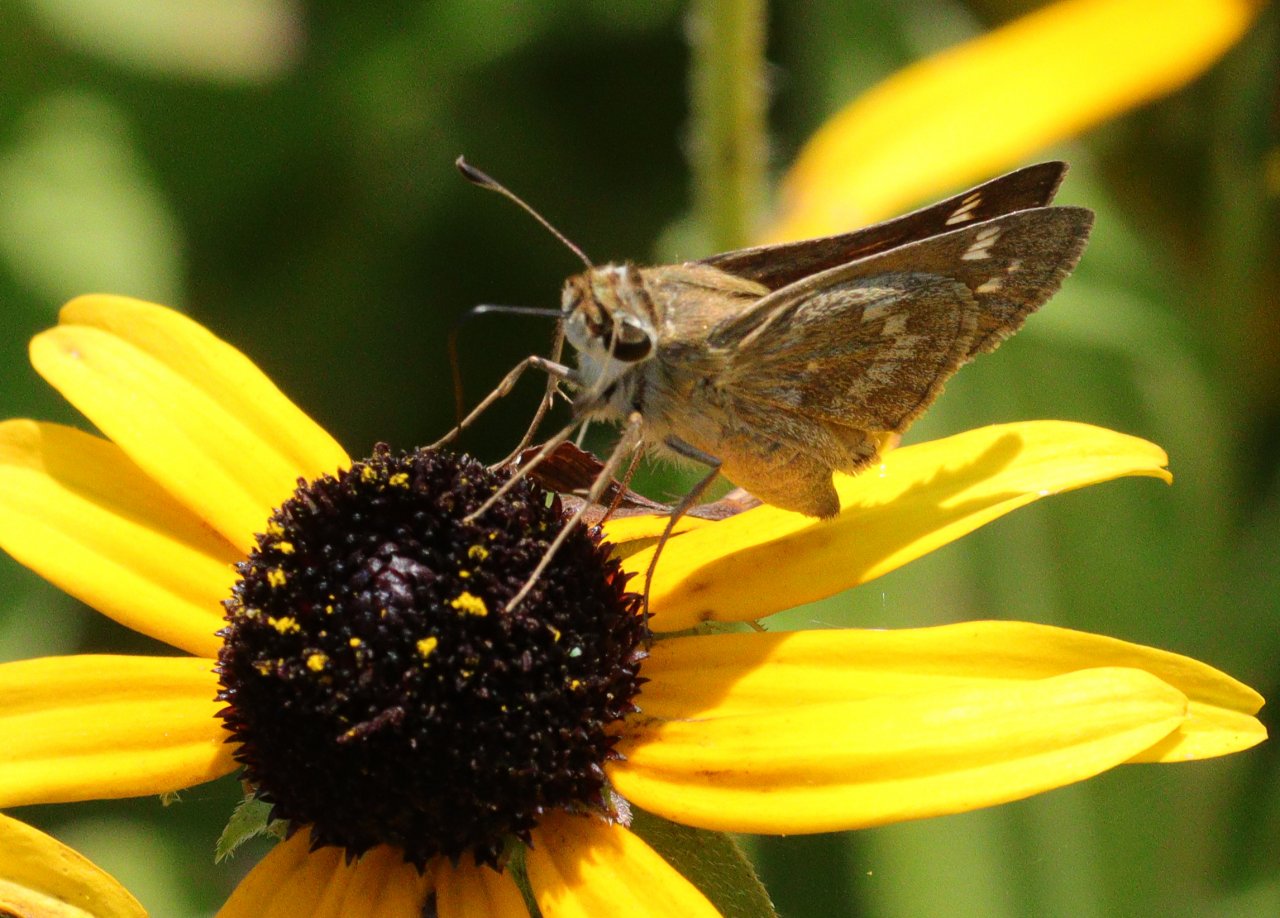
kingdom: Animalia
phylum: Arthropoda
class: Insecta
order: Lepidoptera
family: Hesperiidae
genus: Atalopedes
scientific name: Atalopedes campestris
